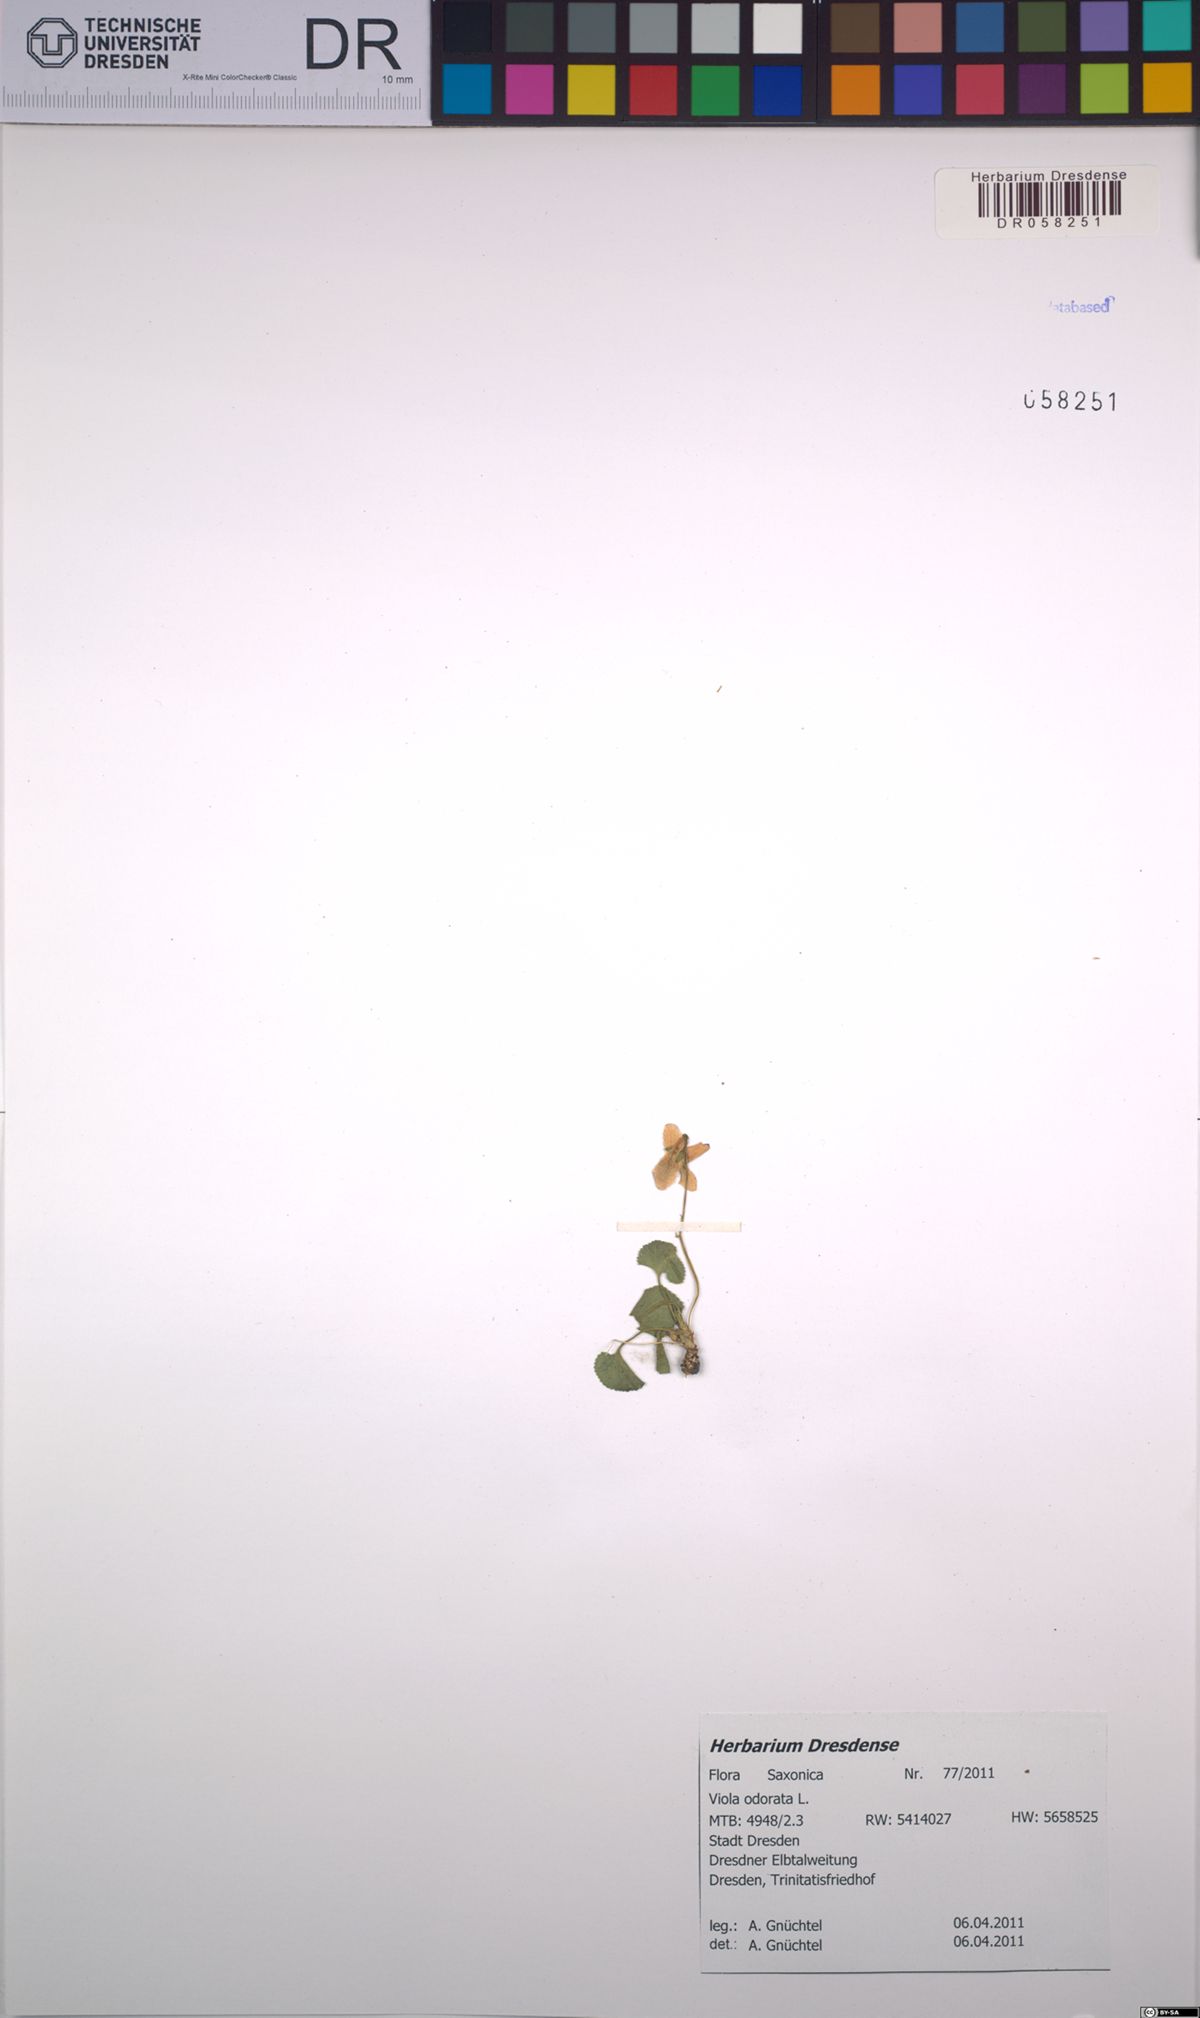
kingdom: Plantae
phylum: Tracheophyta
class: Magnoliopsida
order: Malpighiales
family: Violaceae
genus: Viola
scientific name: Viola odorata
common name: Sweet violet
